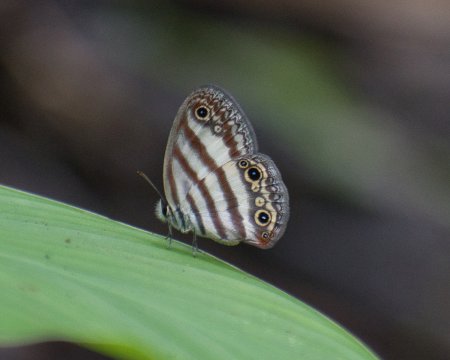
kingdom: Animalia
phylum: Arthropoda
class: Insecta
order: Lepidoptera
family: Nymphalidae
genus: Euptychia
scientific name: Euptychia mollina
